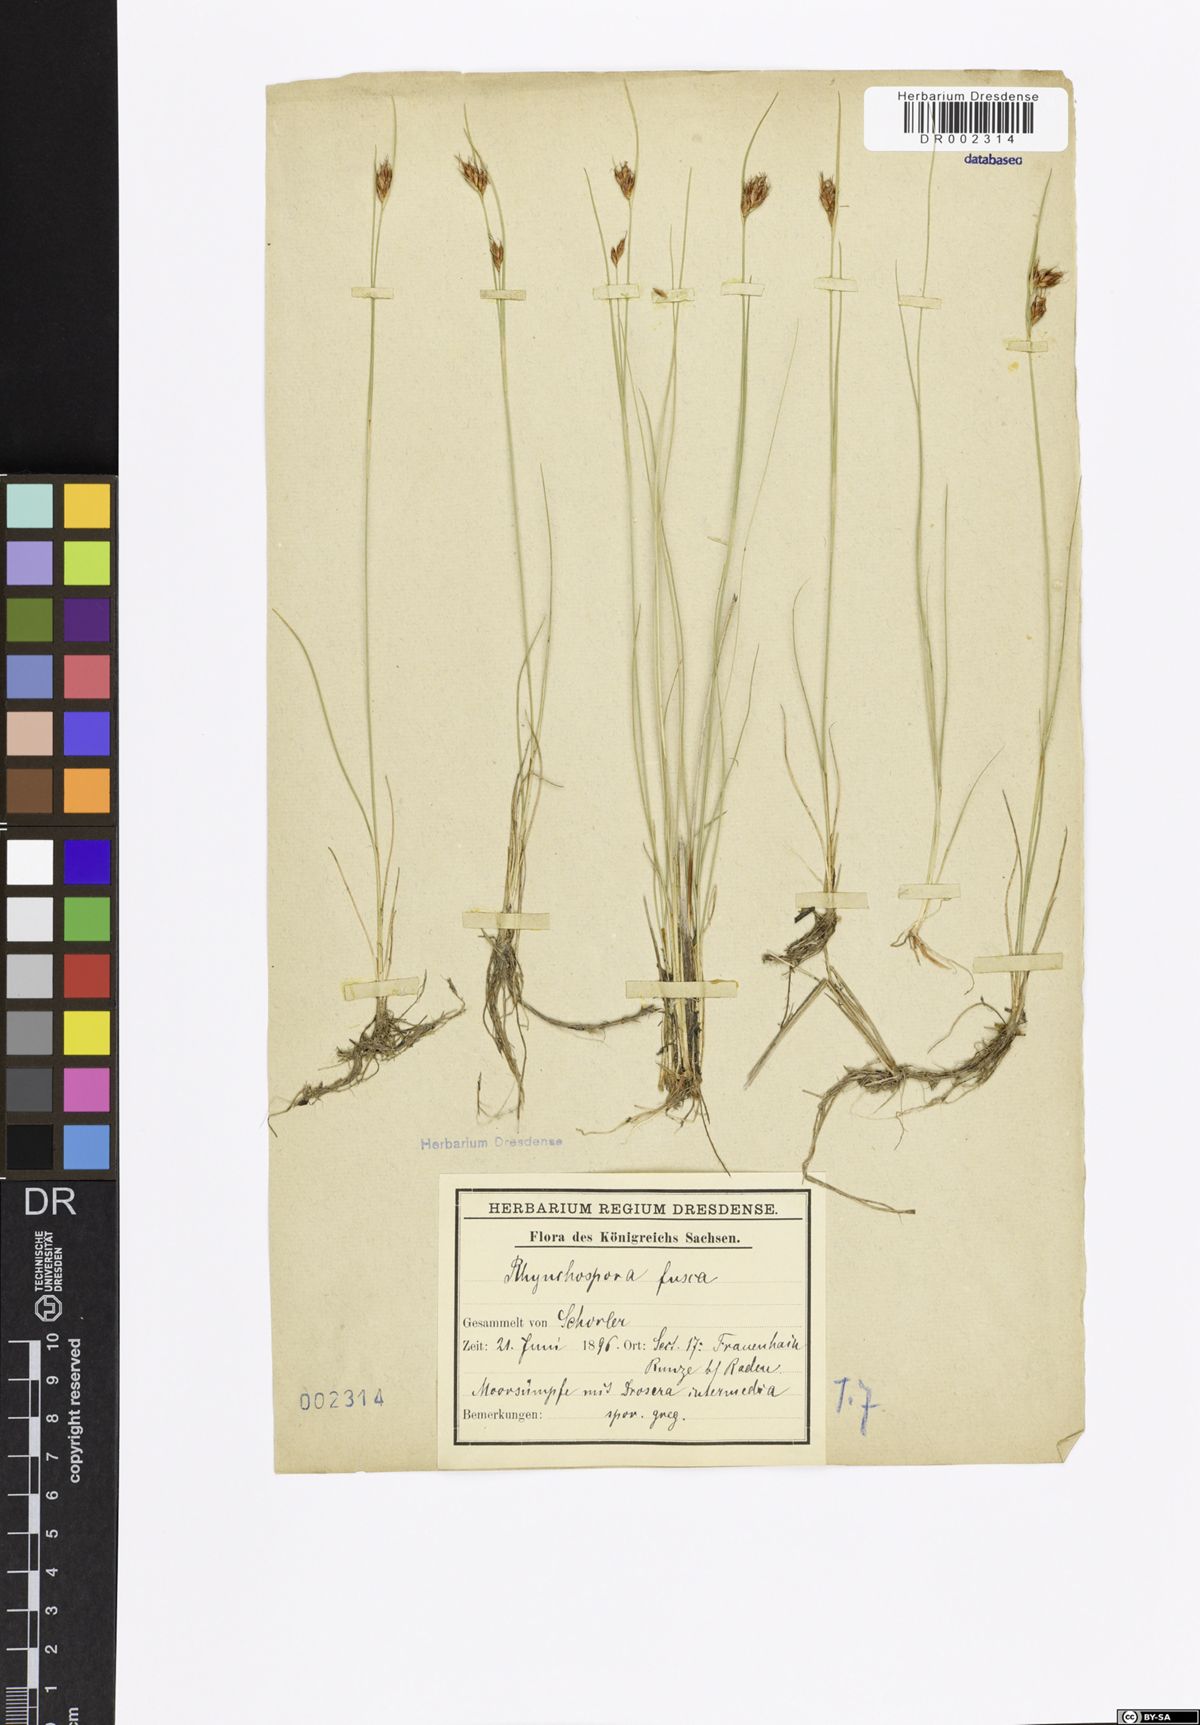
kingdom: Plantae
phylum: Tracheophyta
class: Liliopsida
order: Poales
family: Cyperaceae
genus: Rhynchospora
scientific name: Rhynchospora fusca
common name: Brown beak-sedge
